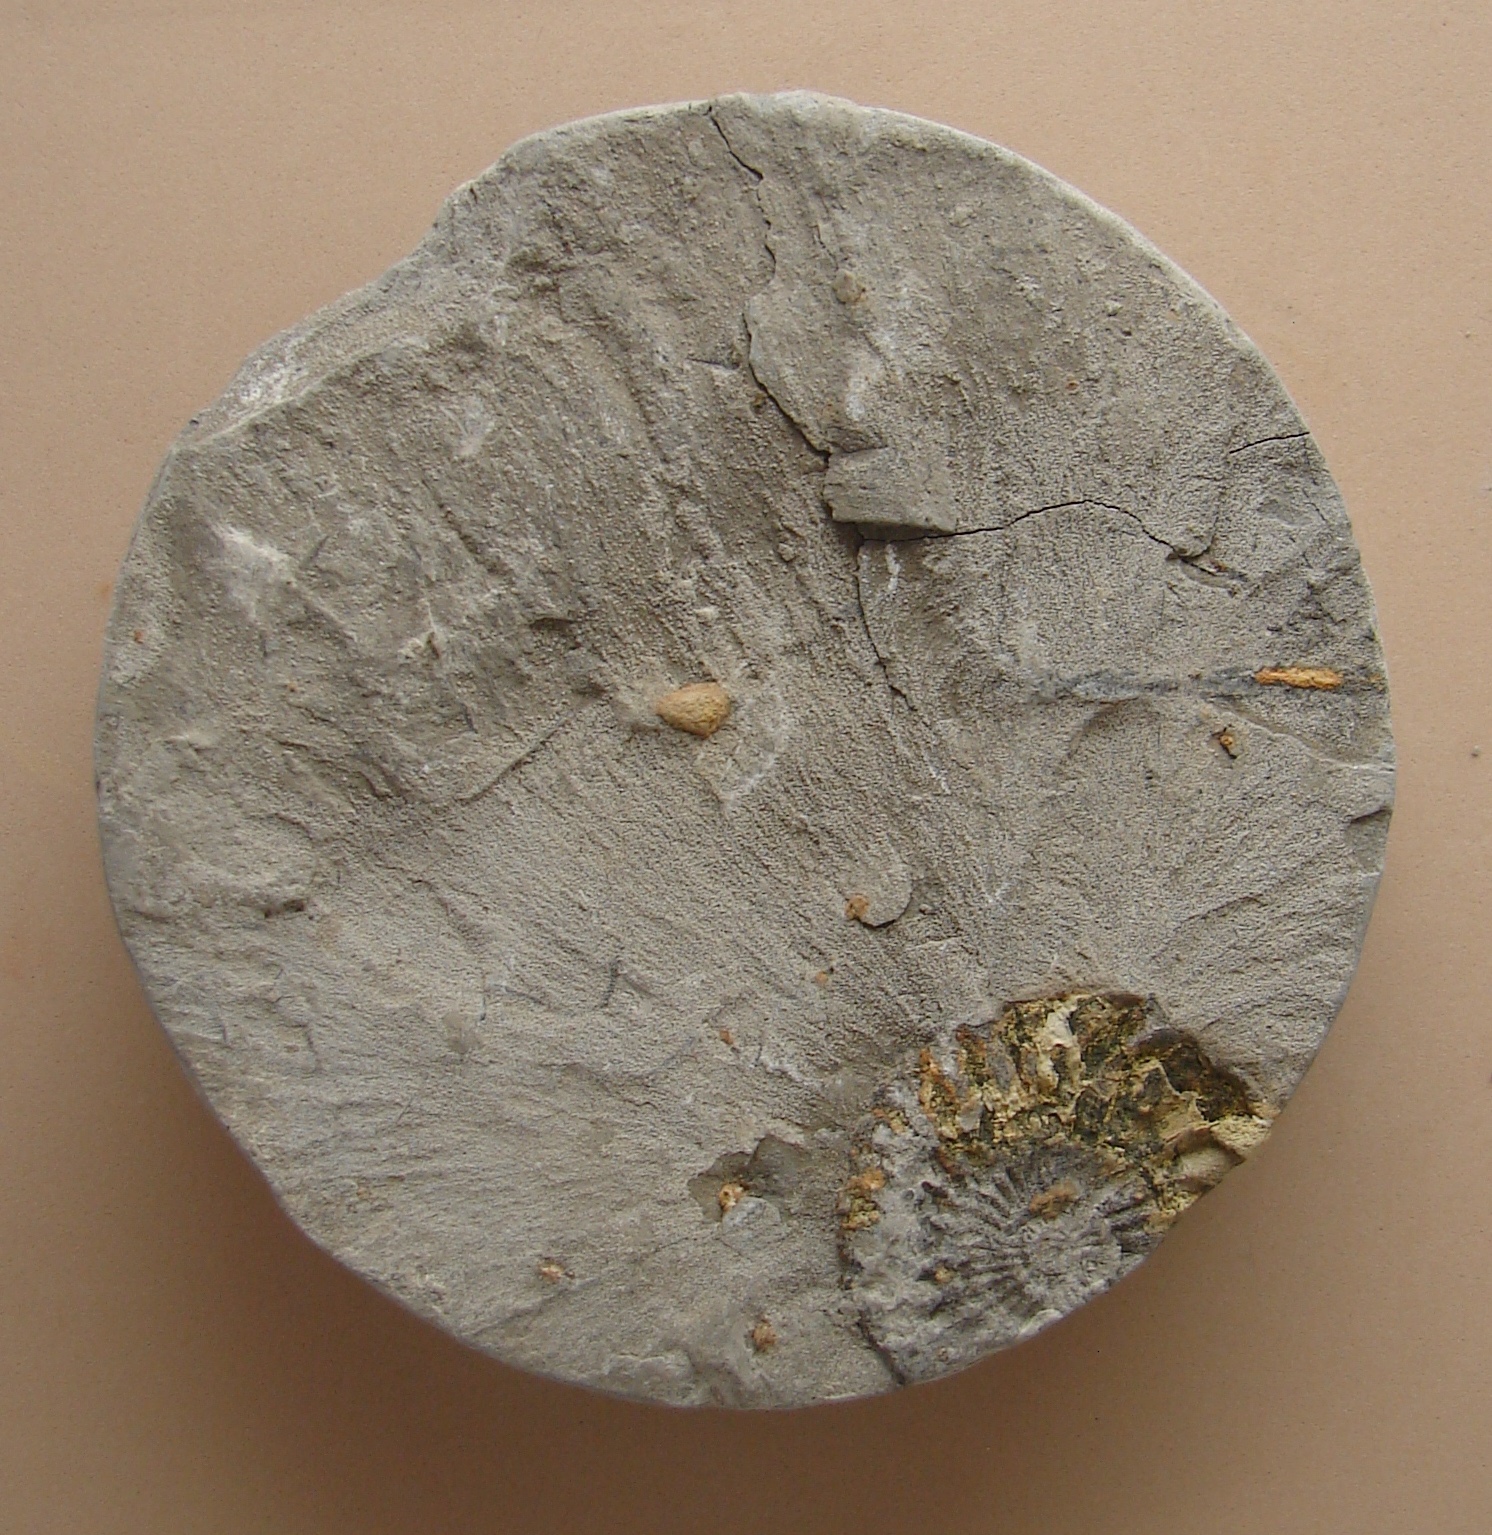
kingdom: Animalia
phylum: Mollusca
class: Cephalopoda
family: Polymorphitidae
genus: Acanthopleuroceras
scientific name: Acanthopleuroceras
